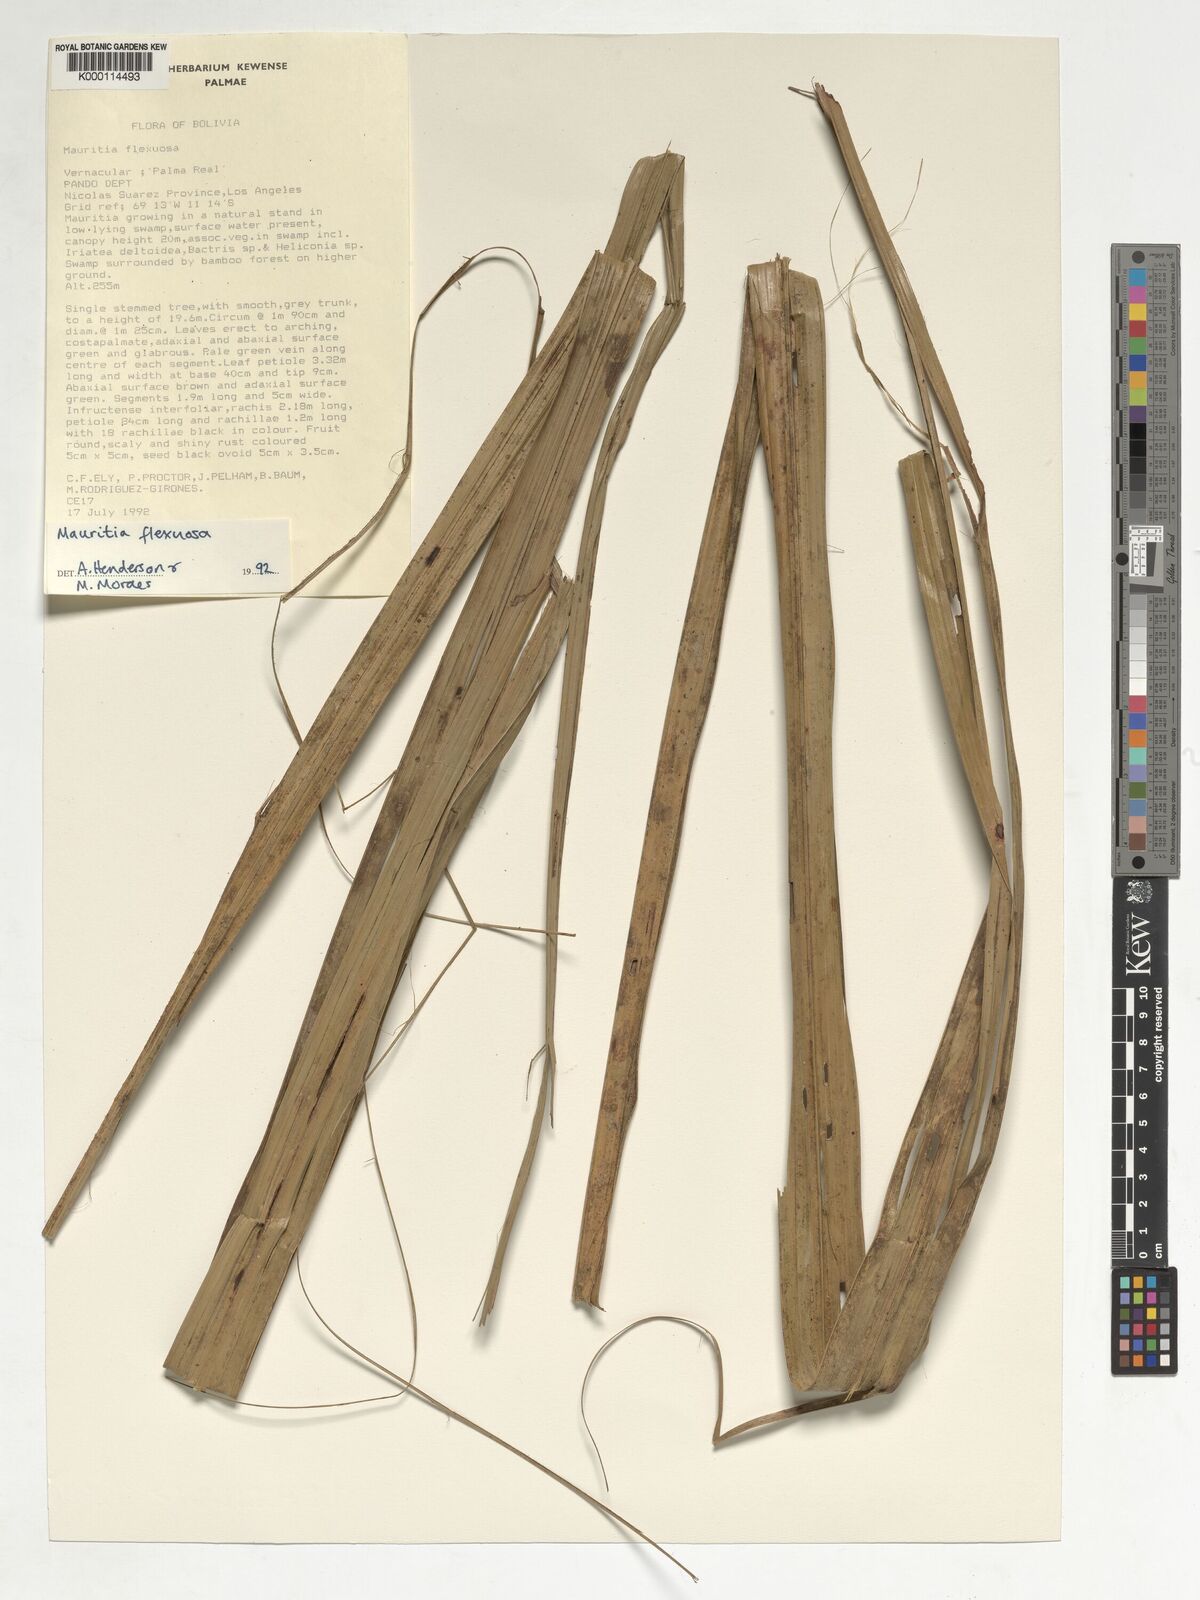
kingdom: Plantae
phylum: Tracheophyta
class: Liliopsida
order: Arecales
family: Arecaceae
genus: Mauritia
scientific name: Mauritia flexuosa
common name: Tree-of-life
